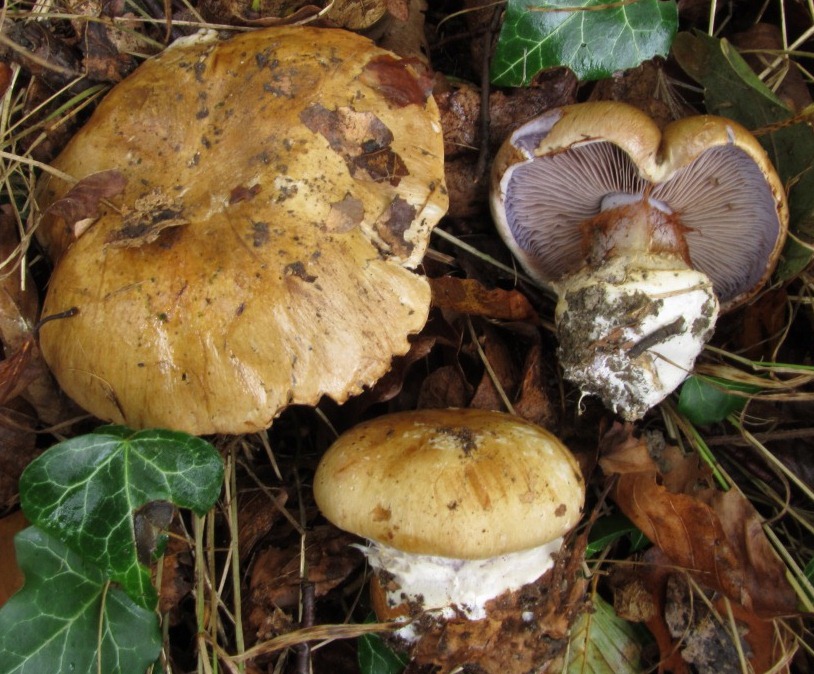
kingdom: Fungi
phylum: Basidiomycota
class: Agaricomycetes
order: Agaricales
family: Cortinariaceae
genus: Cortinarius
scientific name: Cortinarius anserinus
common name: bøge-slørhat
